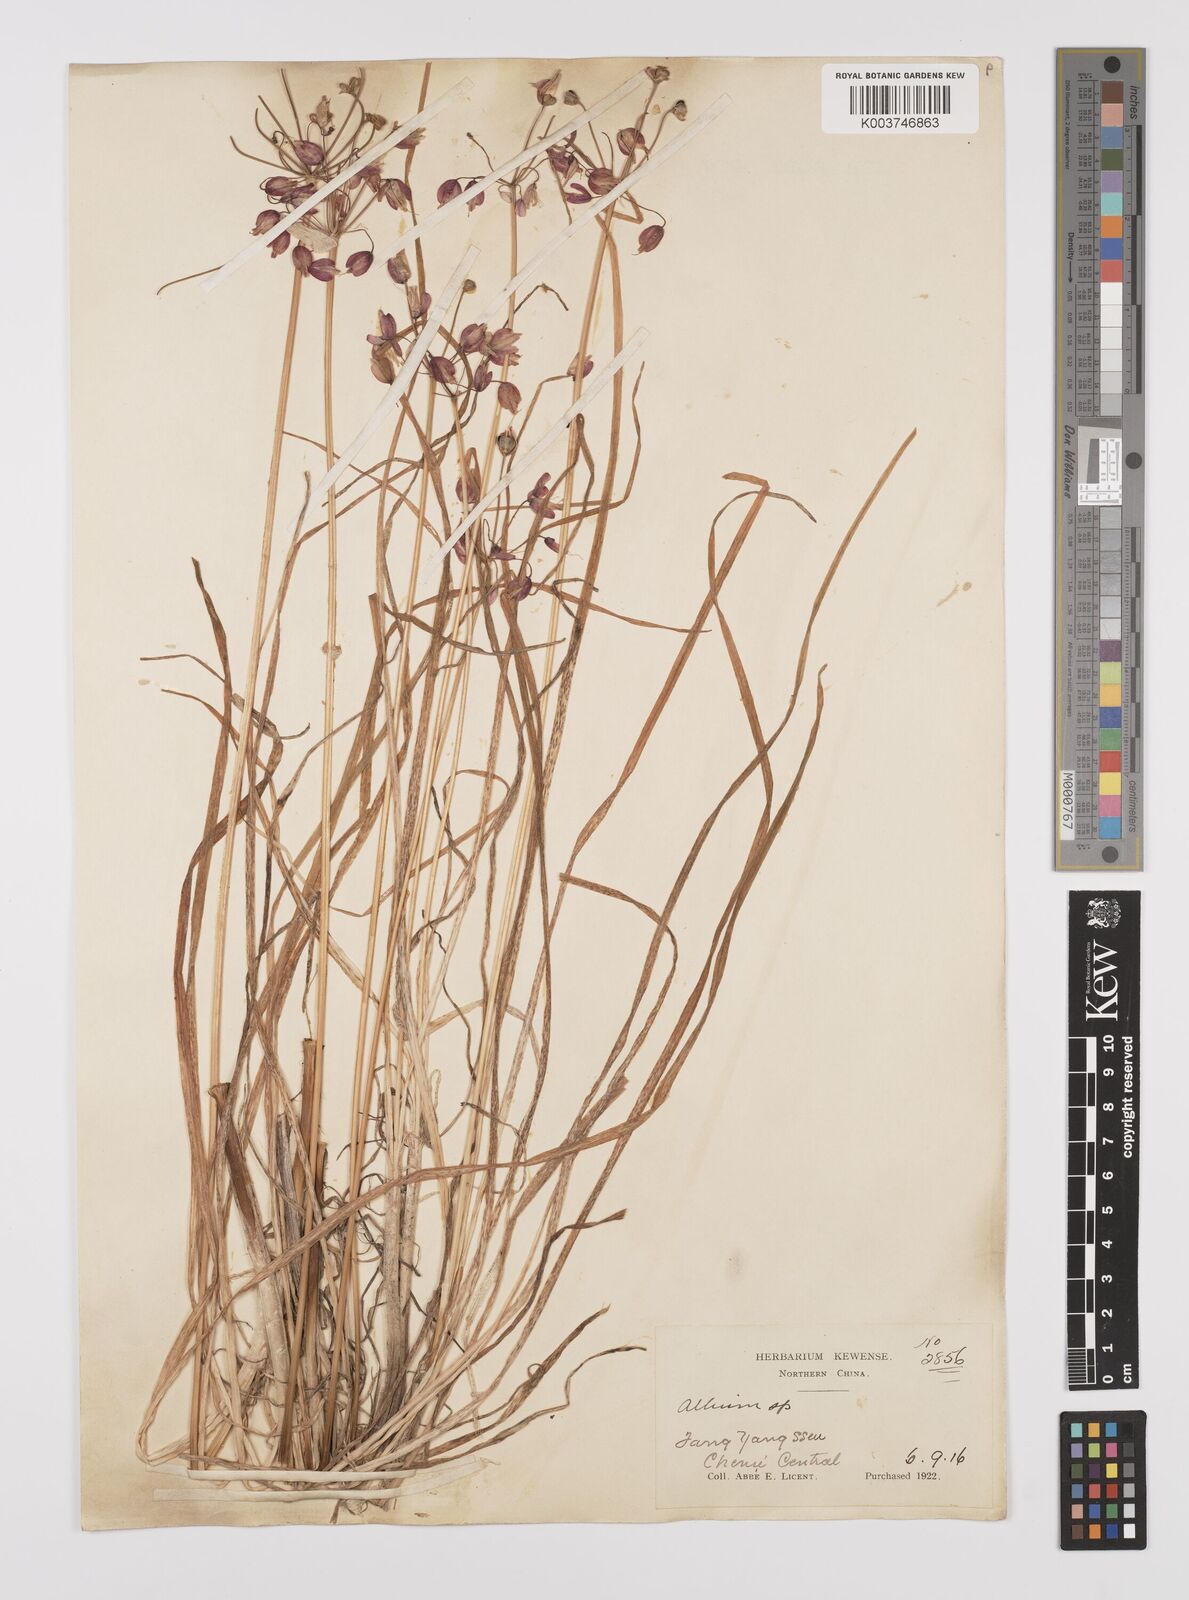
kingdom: Plantae
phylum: Tracheophyta
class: Liliopsida
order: Asparagales
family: Amaryllidaceae
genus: Allium
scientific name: Allium macranthum
